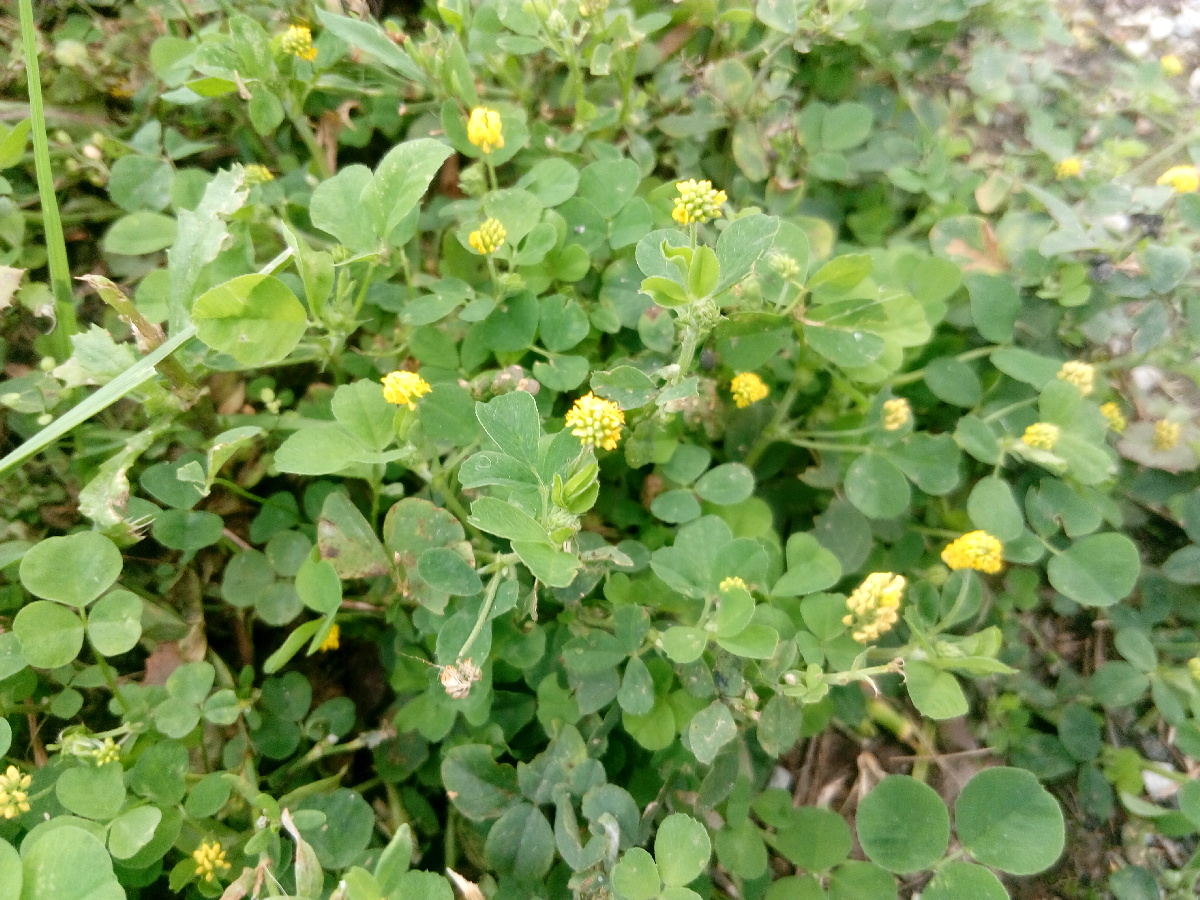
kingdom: Plantae
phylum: Tracheophyta
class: Magnoliopsida
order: Fabales
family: Fabaceae
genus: Trifolium
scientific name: Trifolium aureum
